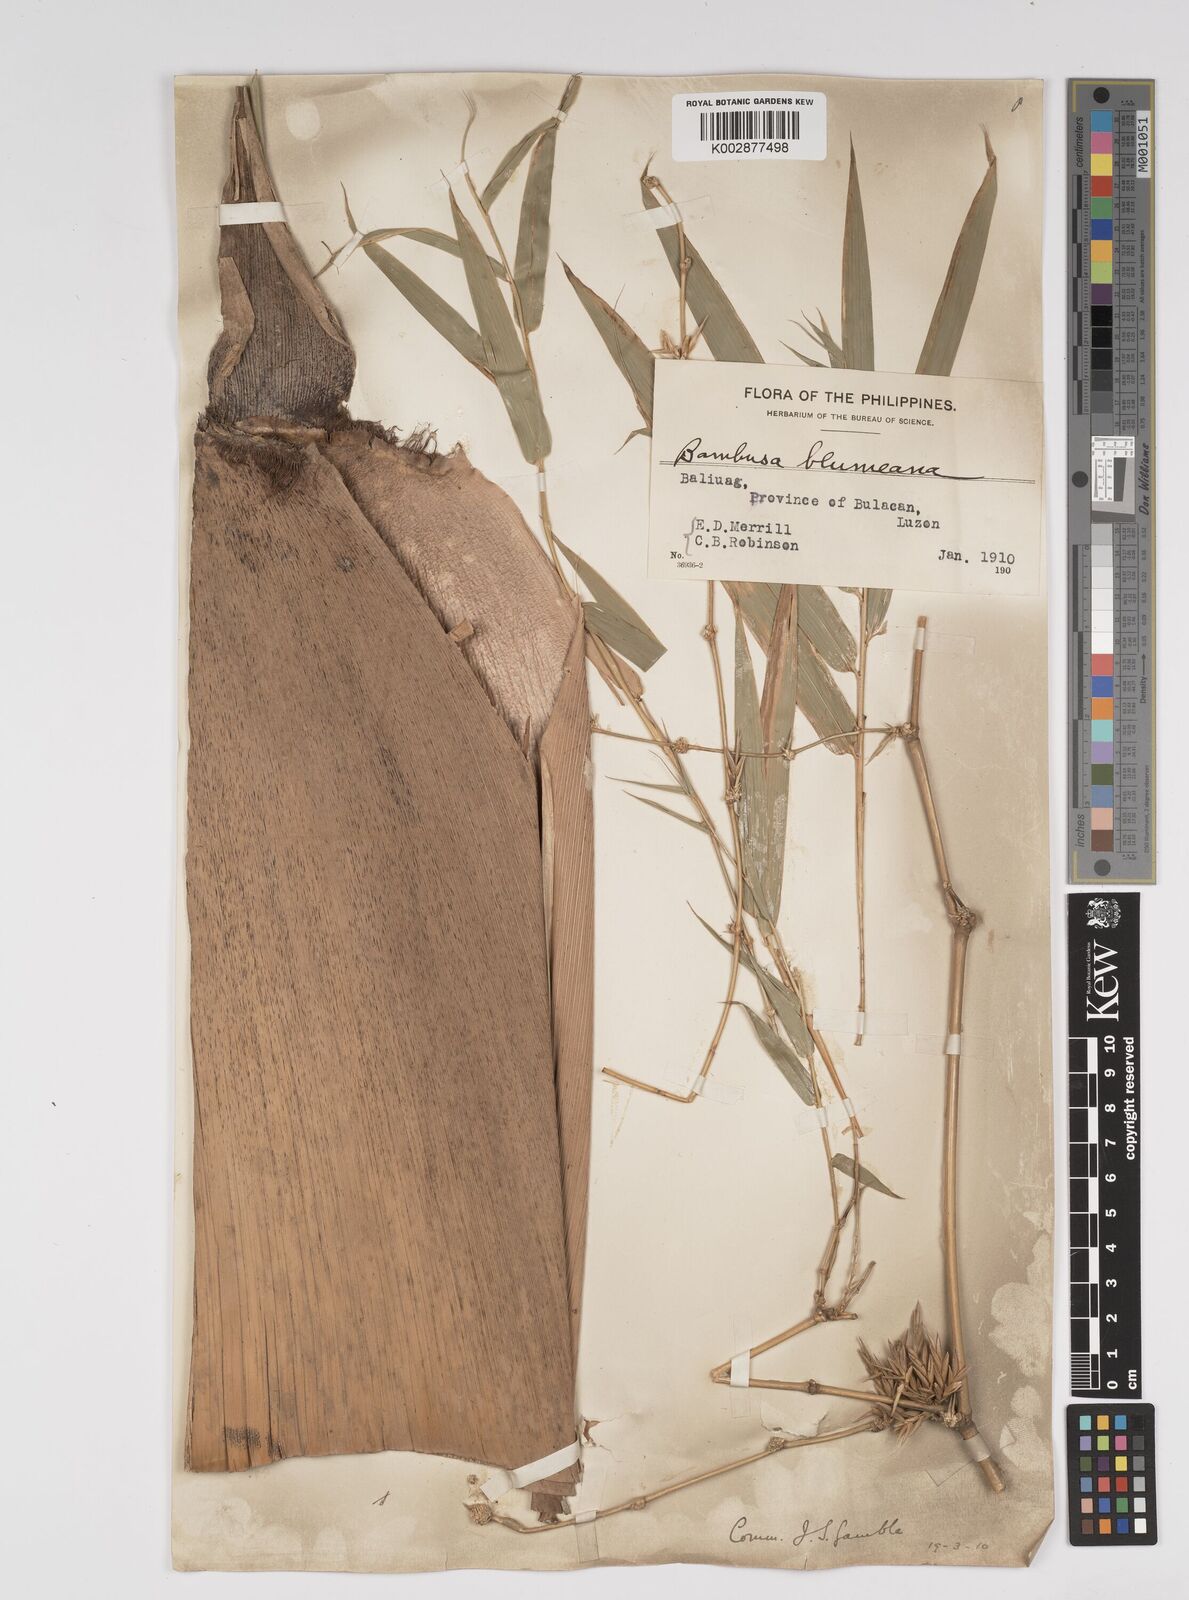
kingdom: Plantae
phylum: Tracheophyta
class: Liliopsida
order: Poales
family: Poaceae
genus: Bambusa
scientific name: Bambusa spinosa
